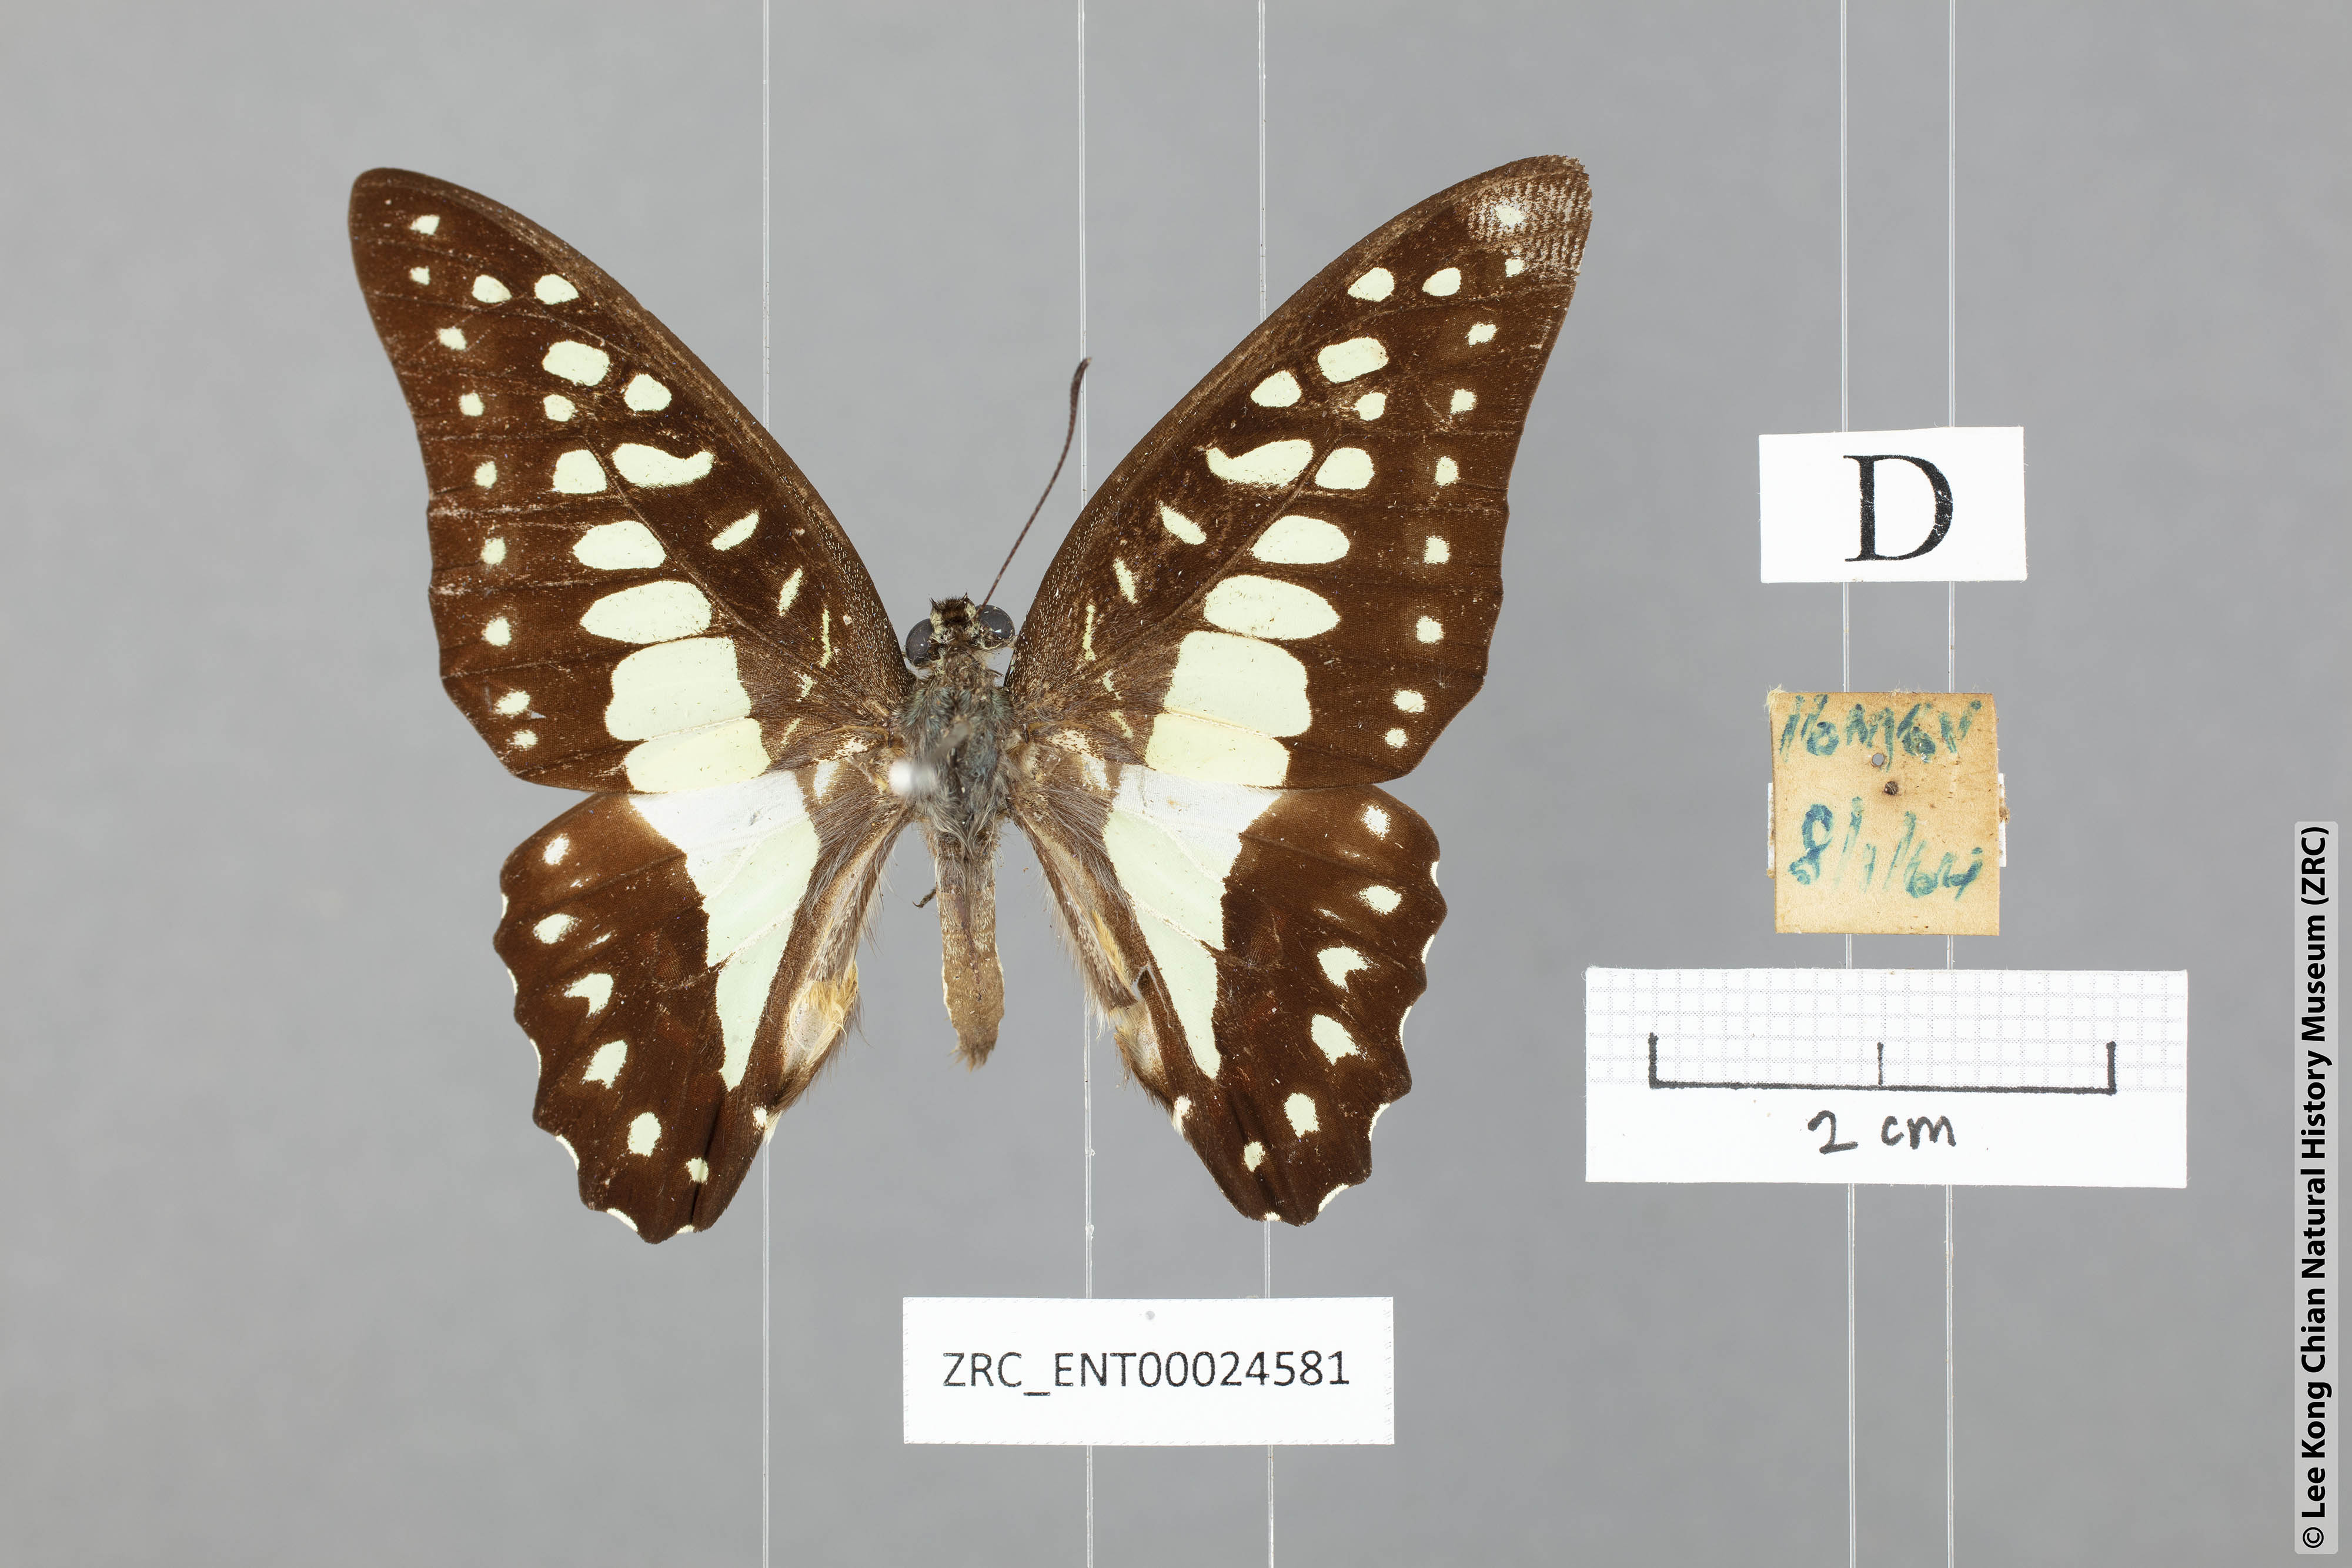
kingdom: Animalia
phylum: Arthropoda
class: Insecta
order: Lepidoptera
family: Papilionidae
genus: Graphium
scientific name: Graphium eurypylus
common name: Great jay
